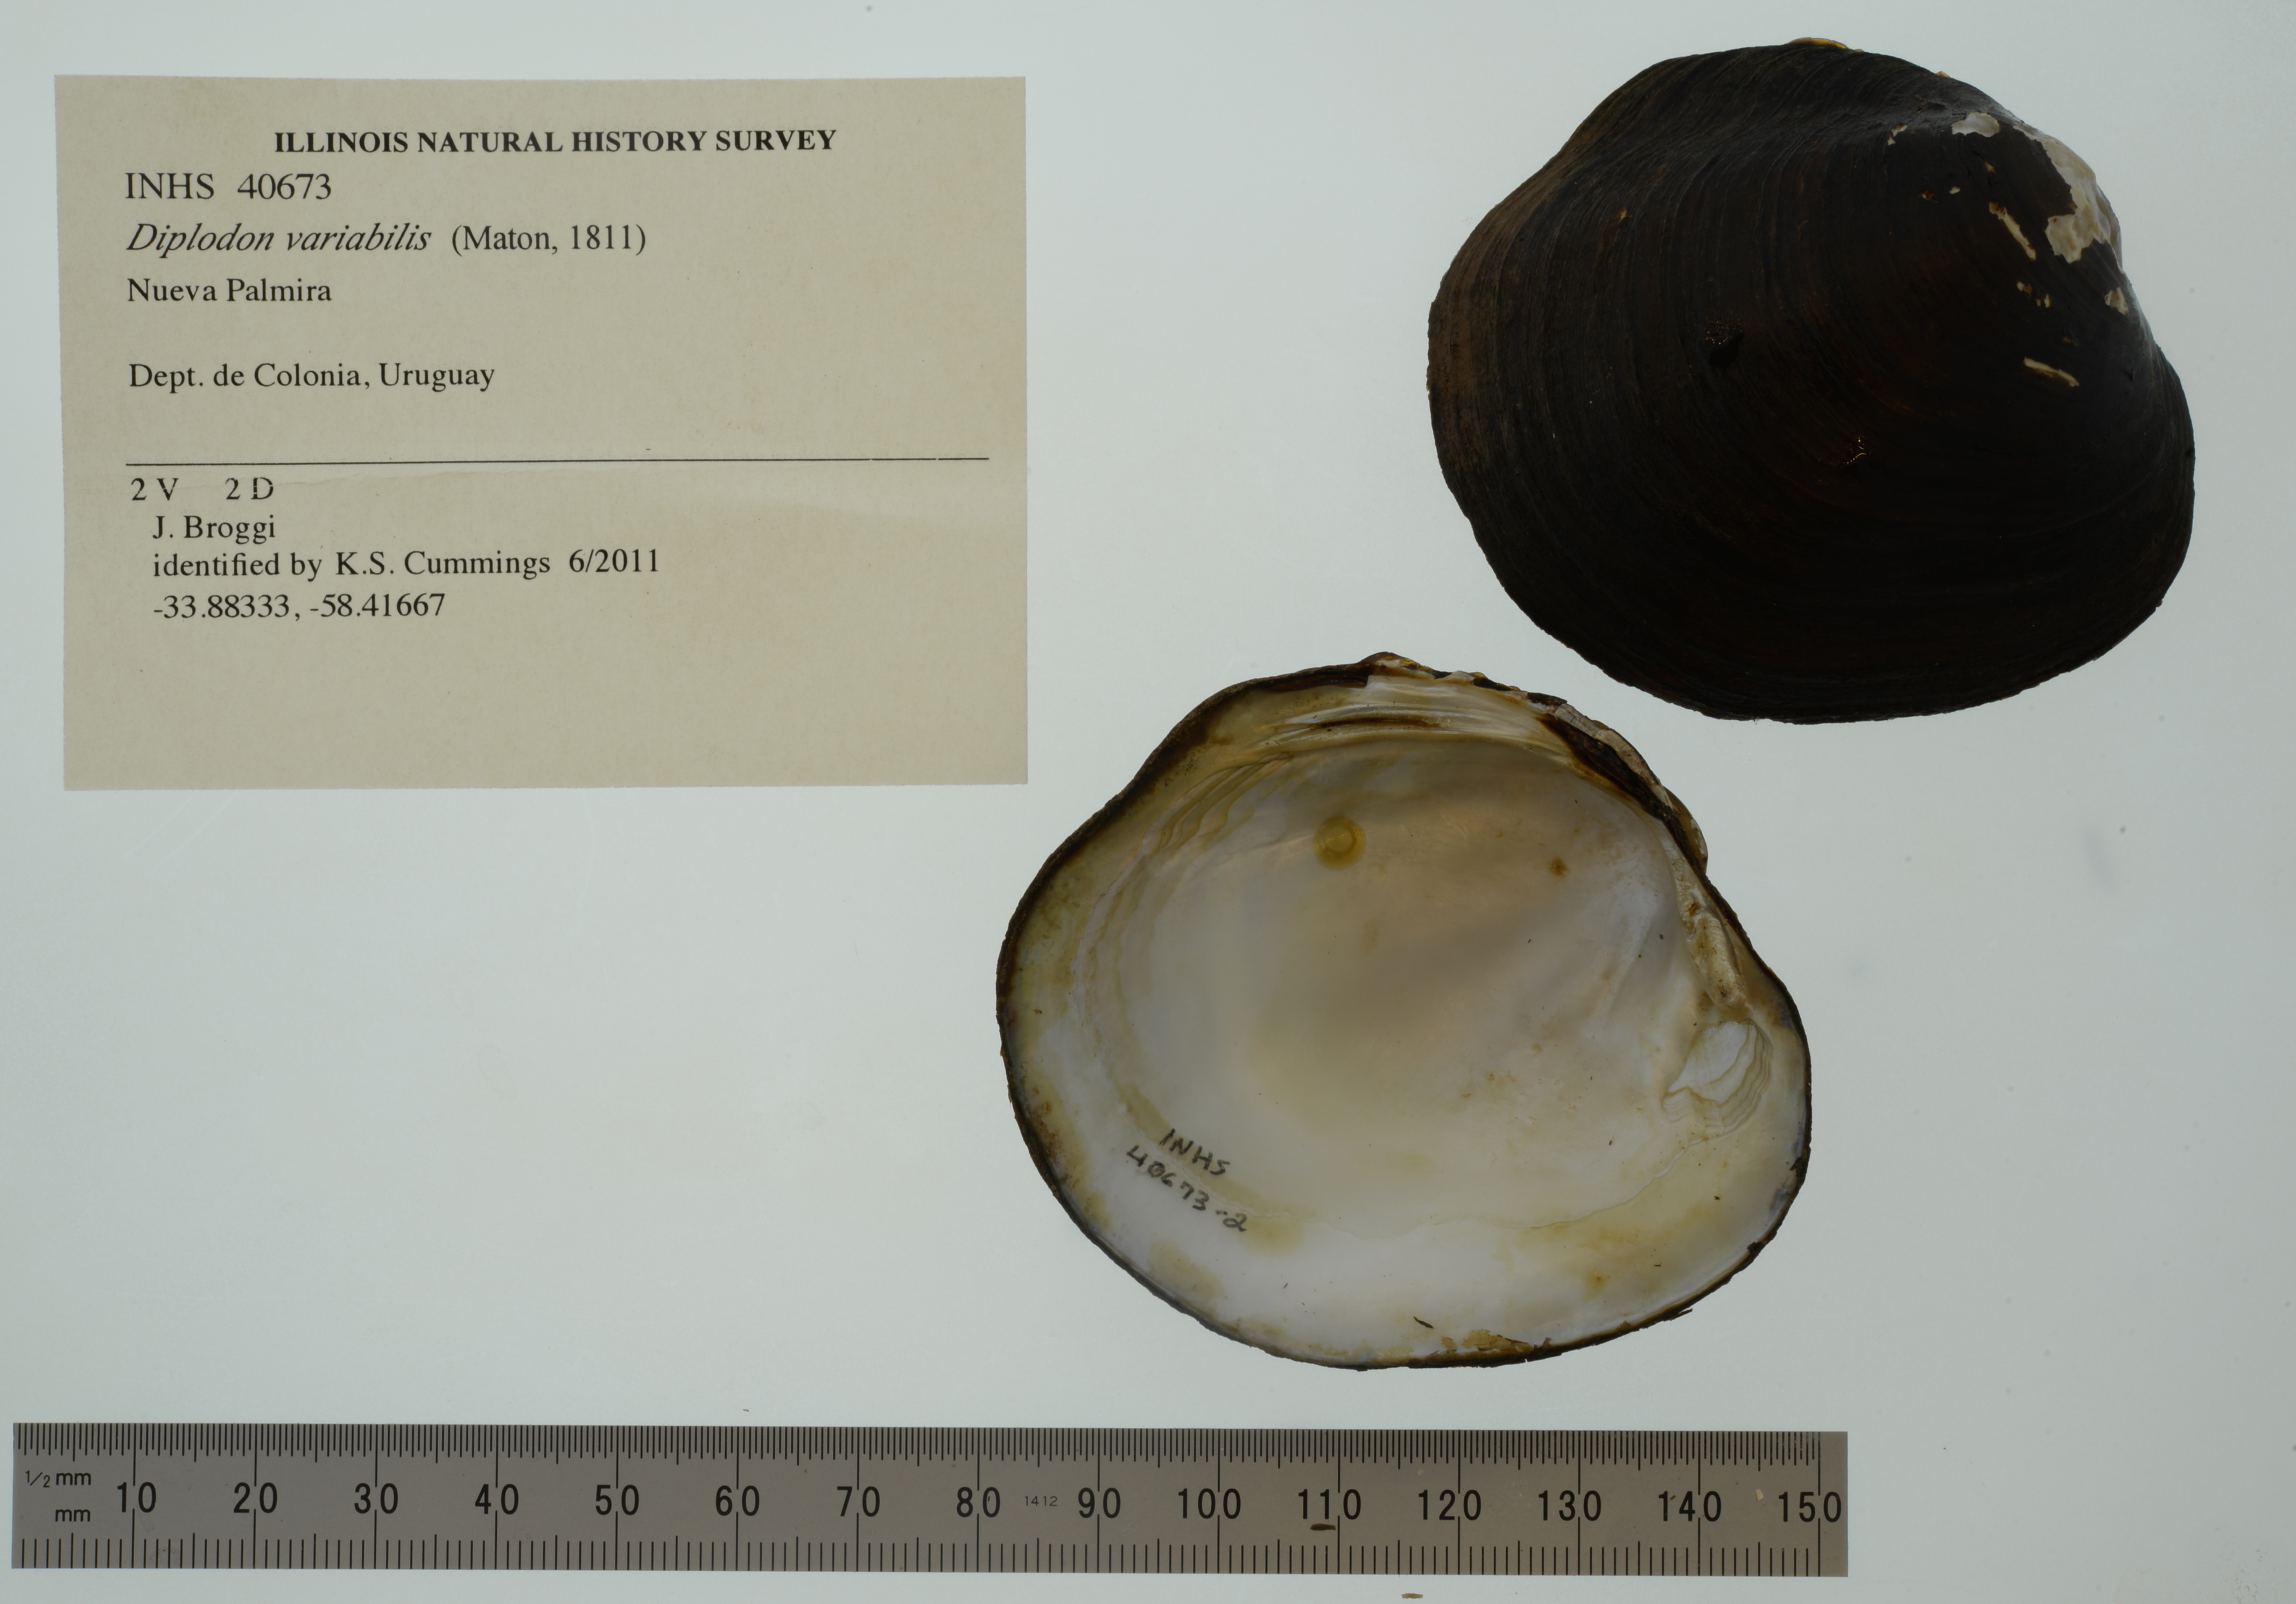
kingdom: Animalia
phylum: Mollusca
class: Bivalvia
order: Unionida
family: Hyriidae
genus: Rhipidodonta
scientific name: Rhipidodonta variabilis
